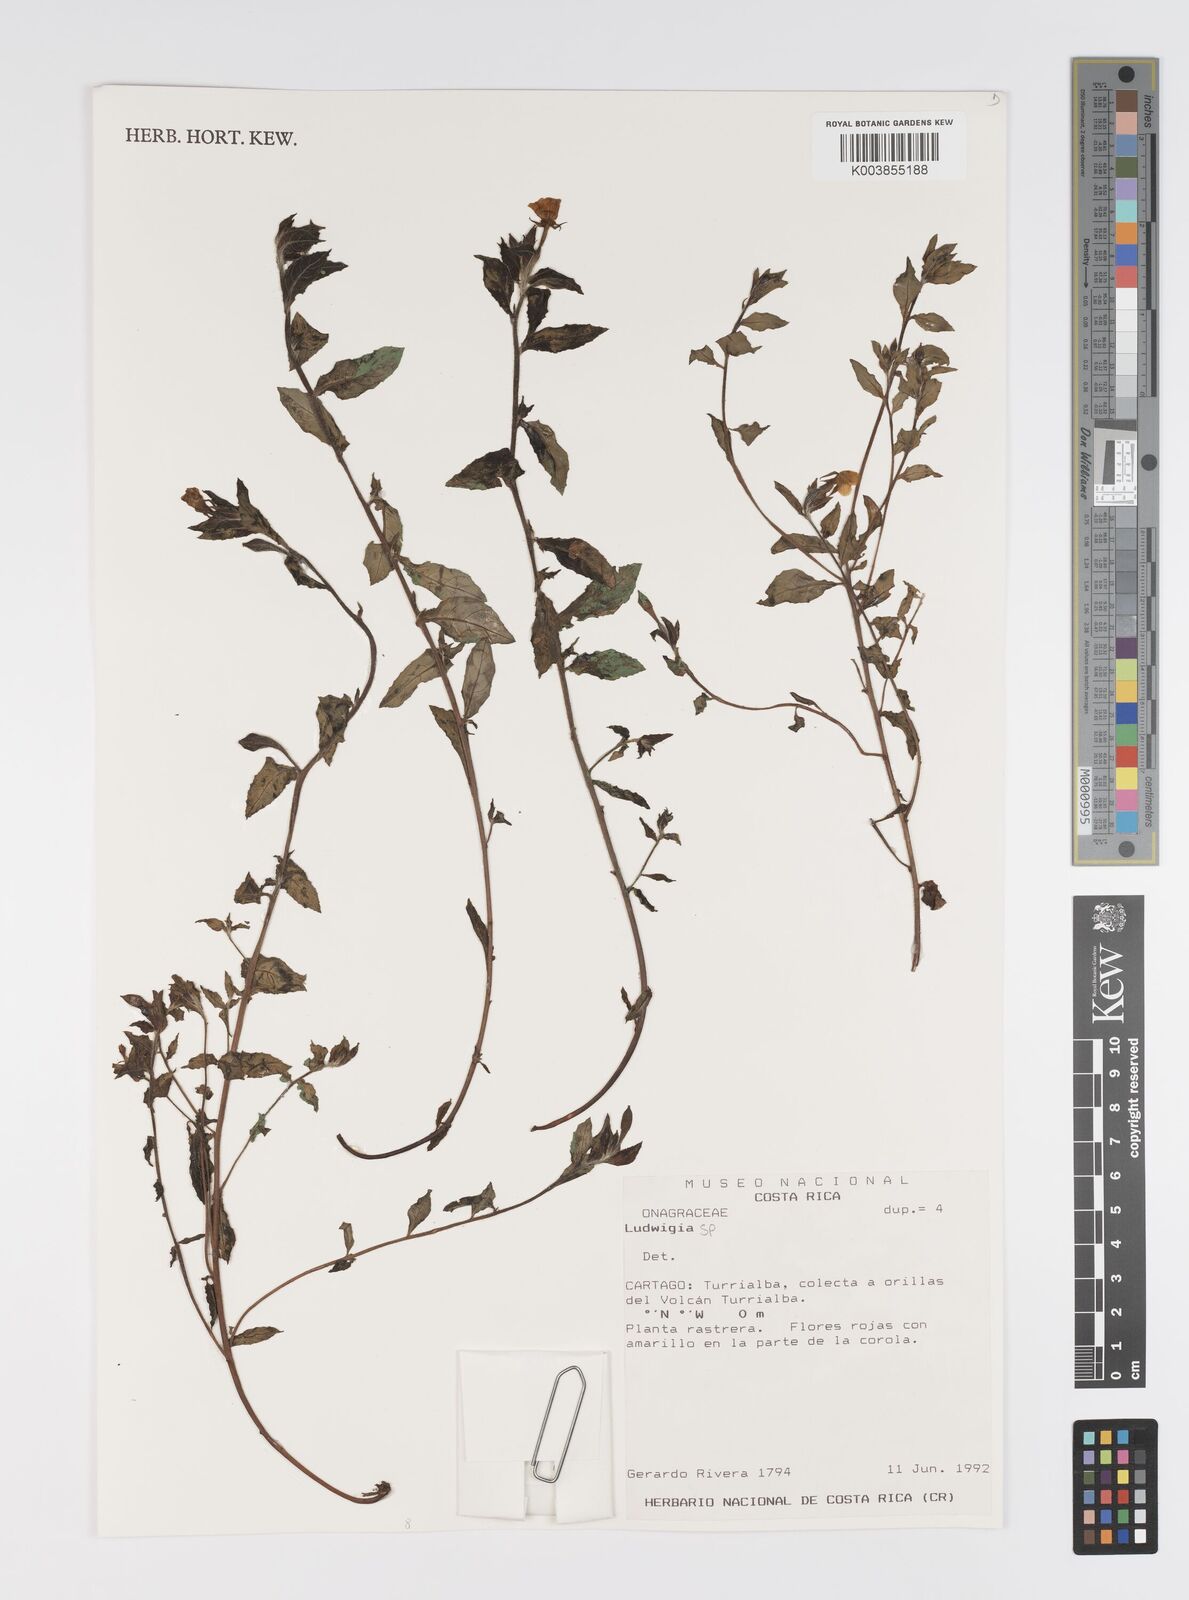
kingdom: Plantae
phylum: Tracheophyta
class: Magnoliopsida
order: Myrtales
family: Onagraceae
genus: Ludwigia
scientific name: Ludwigia
